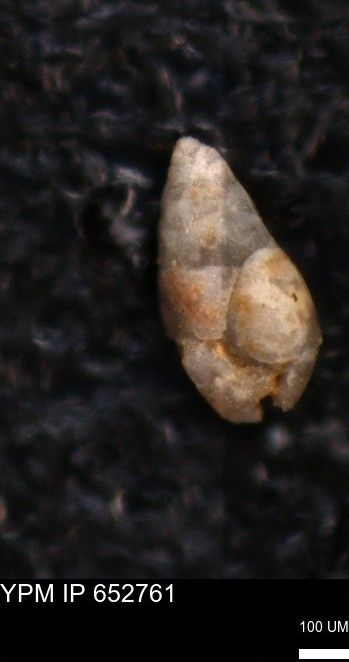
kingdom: Chromista
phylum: Foraminifera
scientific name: Foraminifera
